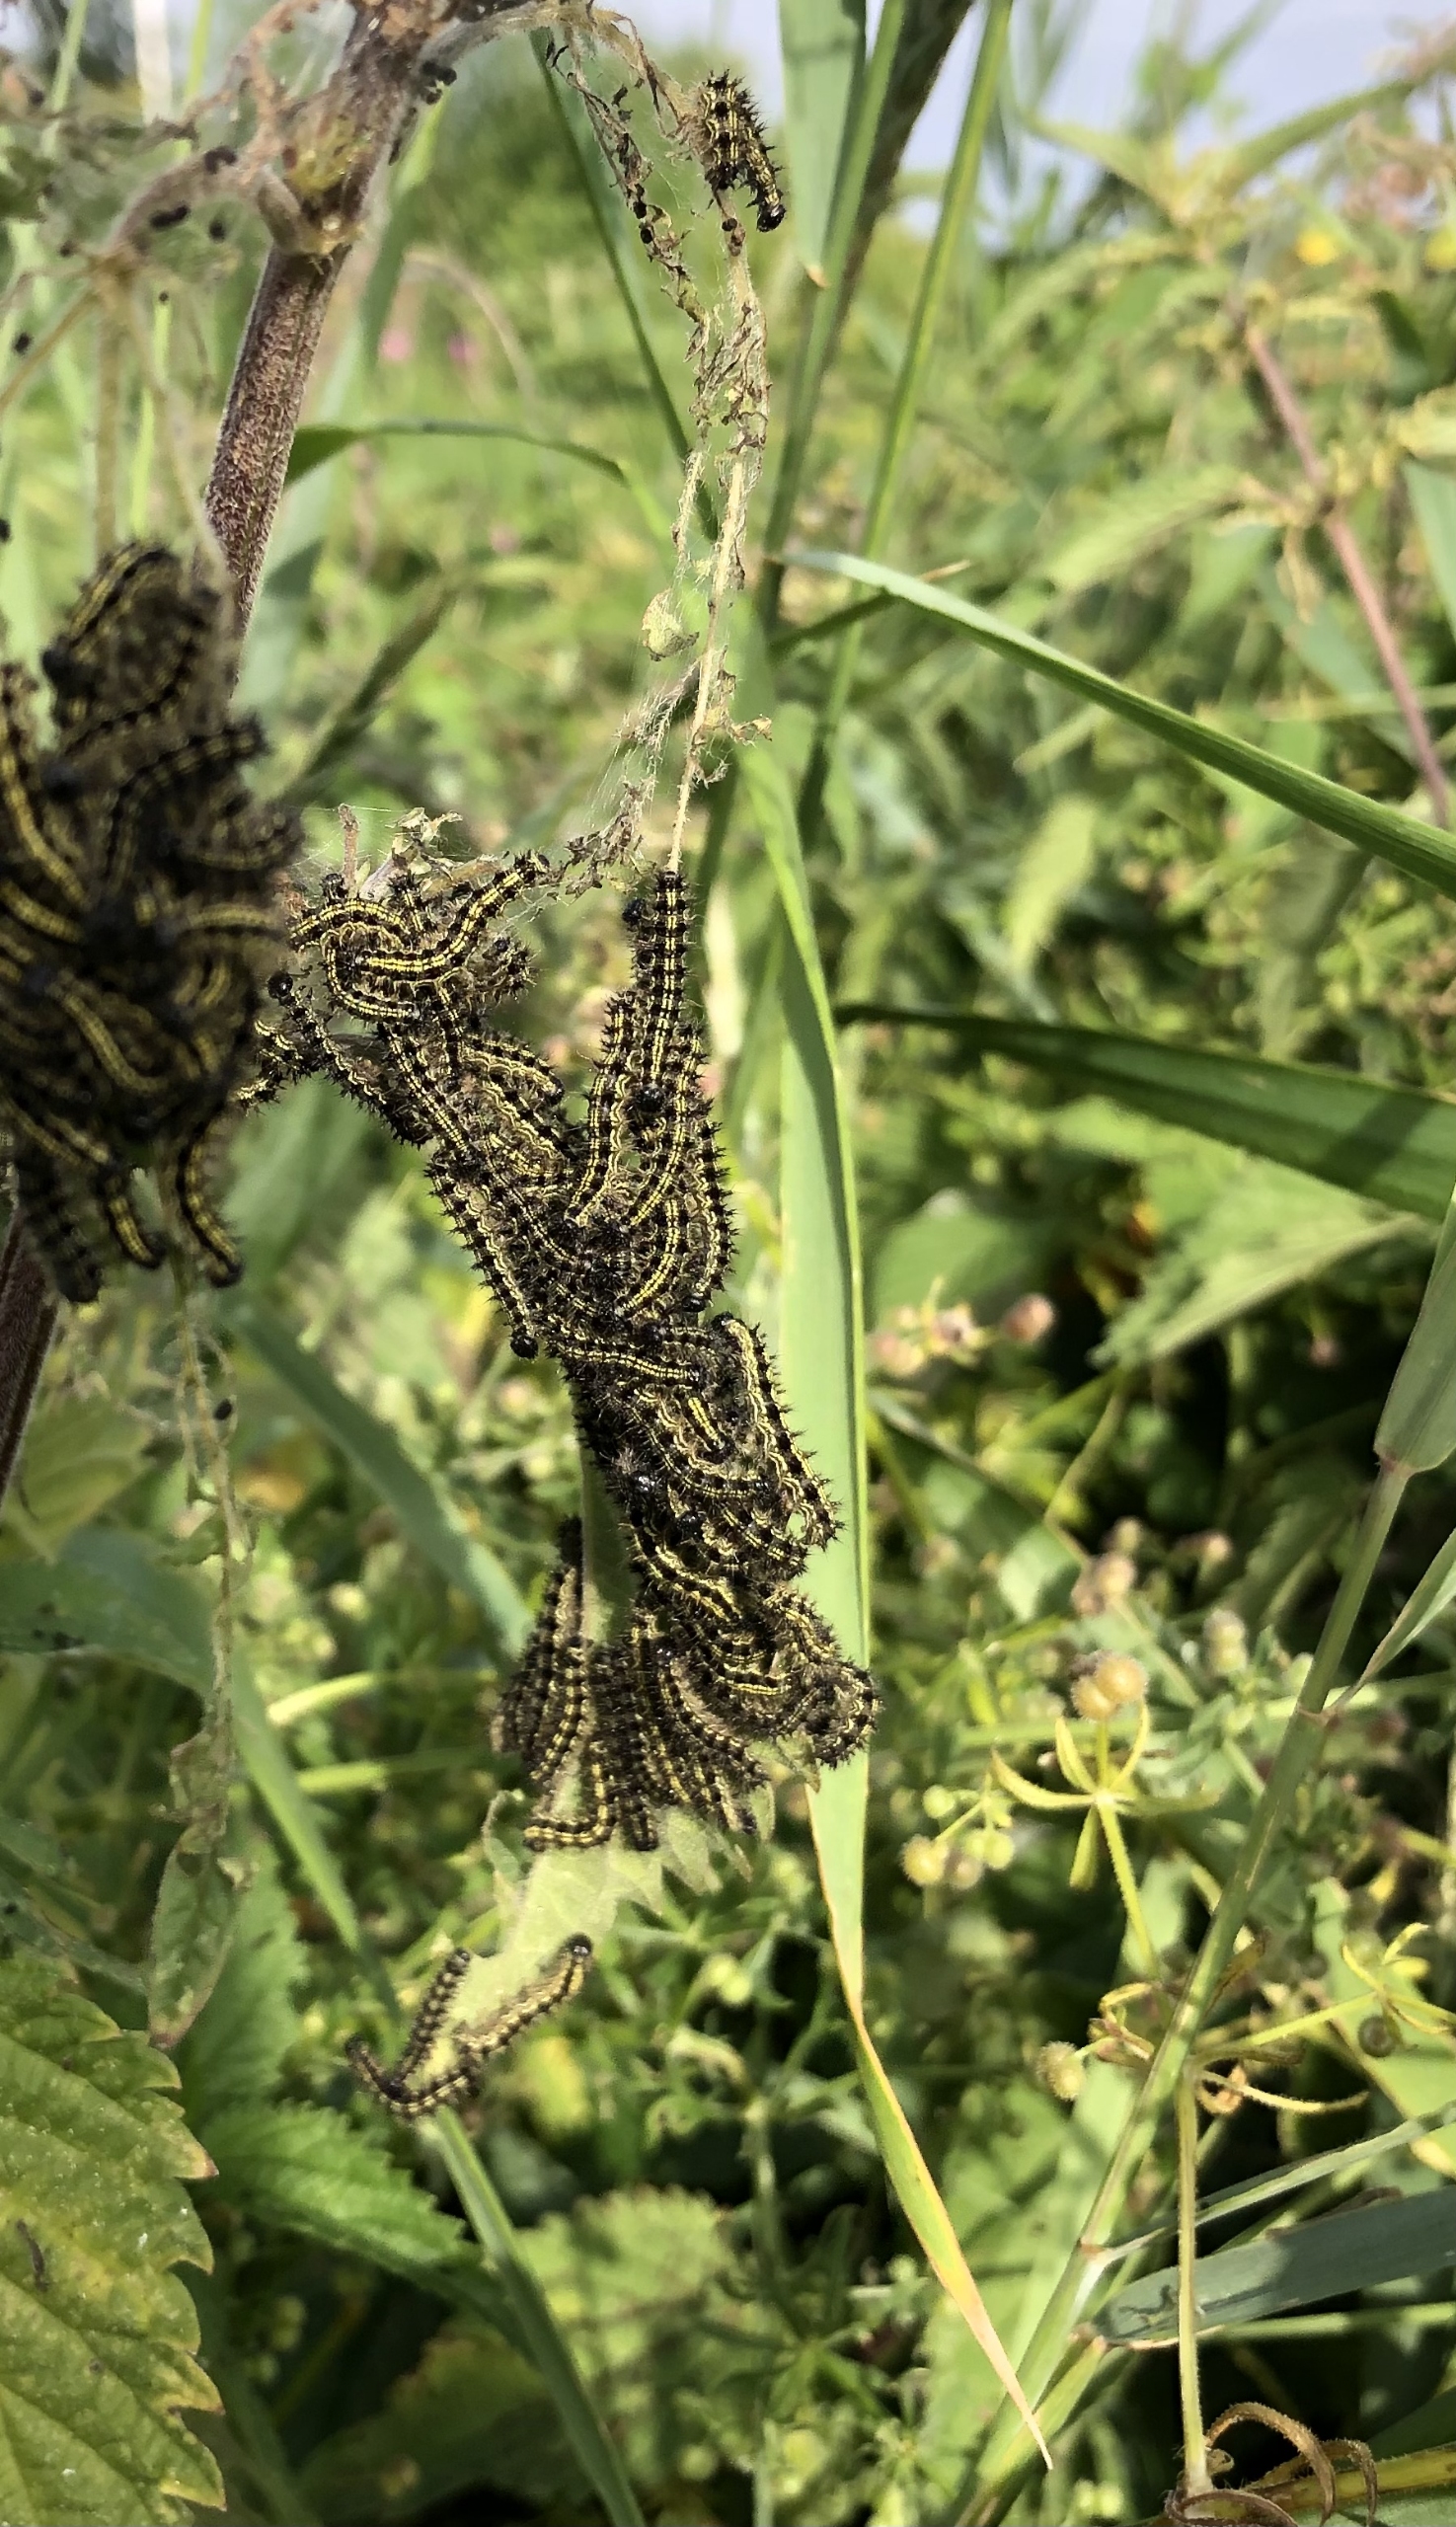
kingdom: Animalia
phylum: Arthropoda
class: Insecta
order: Lepidoptera
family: Nymphalidae
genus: Aglais
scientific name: Aglais urticae
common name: Nældens takvinge
